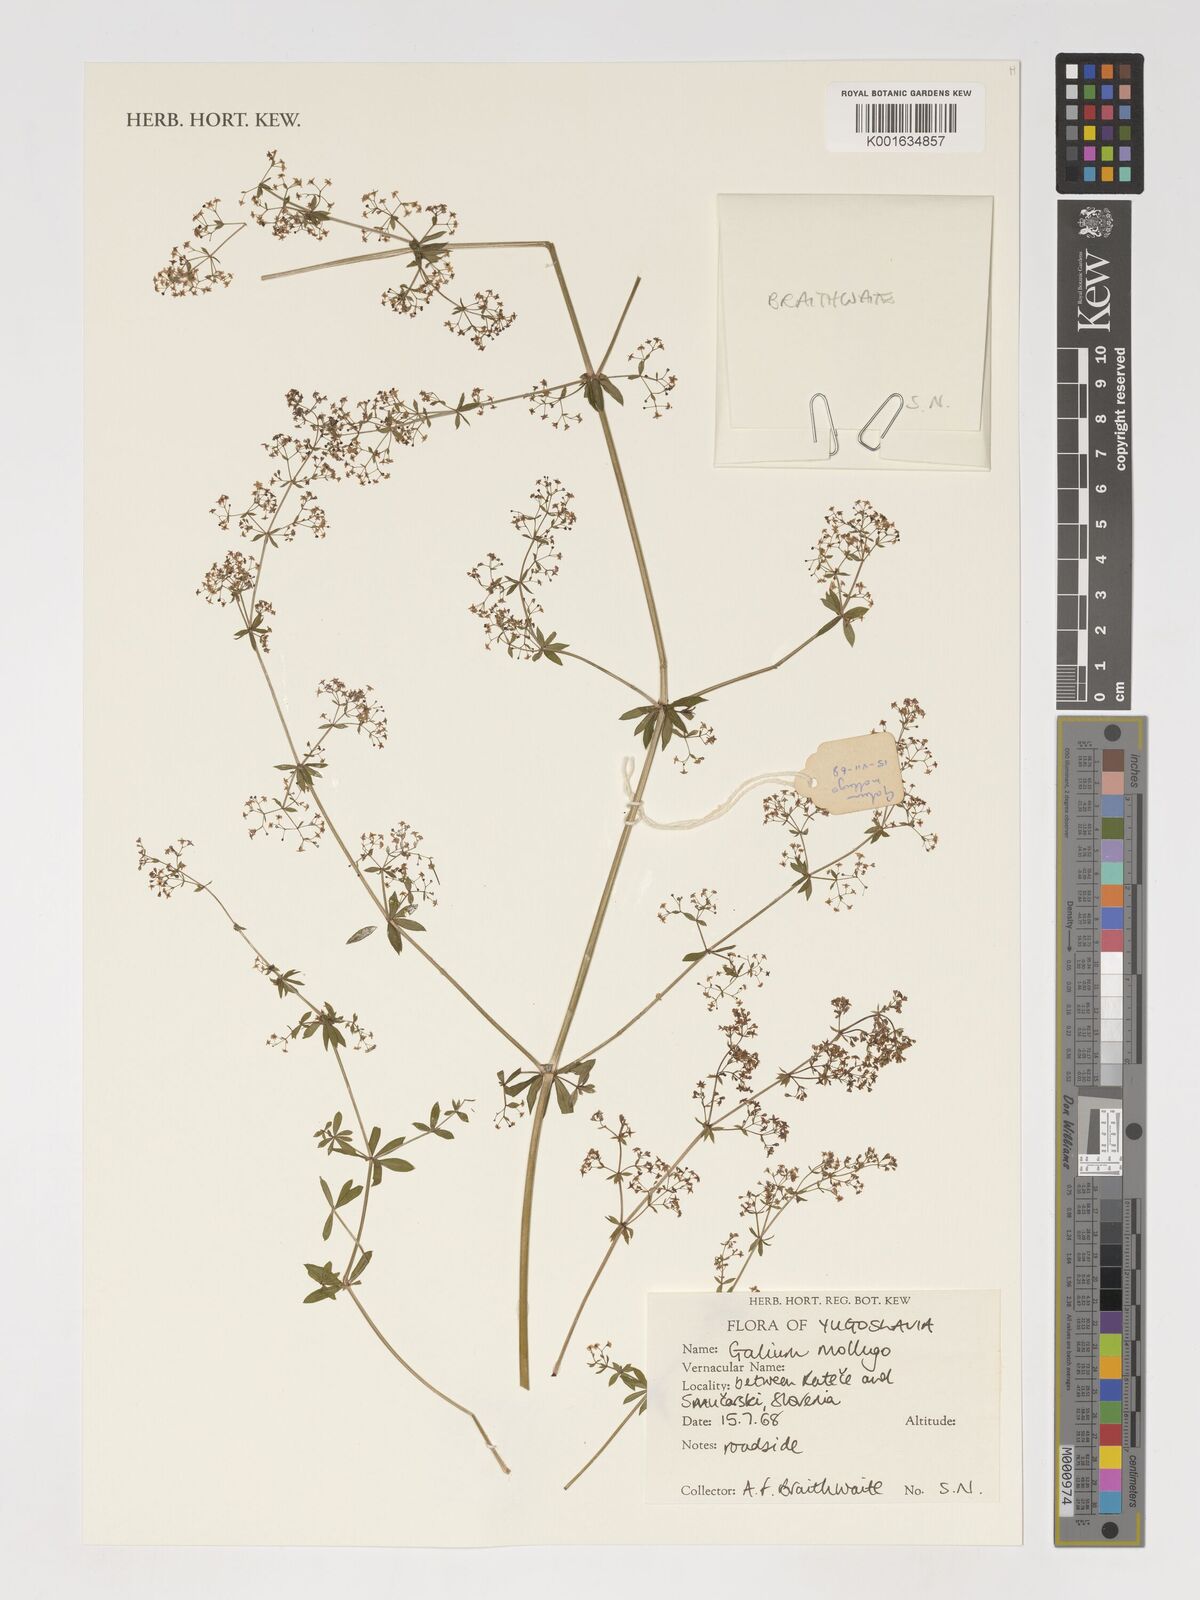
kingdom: Plantae
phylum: Tracheophyta
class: Magnoliopsida
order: Gentianales
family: Rubiaceae
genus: Galium
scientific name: Galium mollugo
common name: Hedge bedstraw
